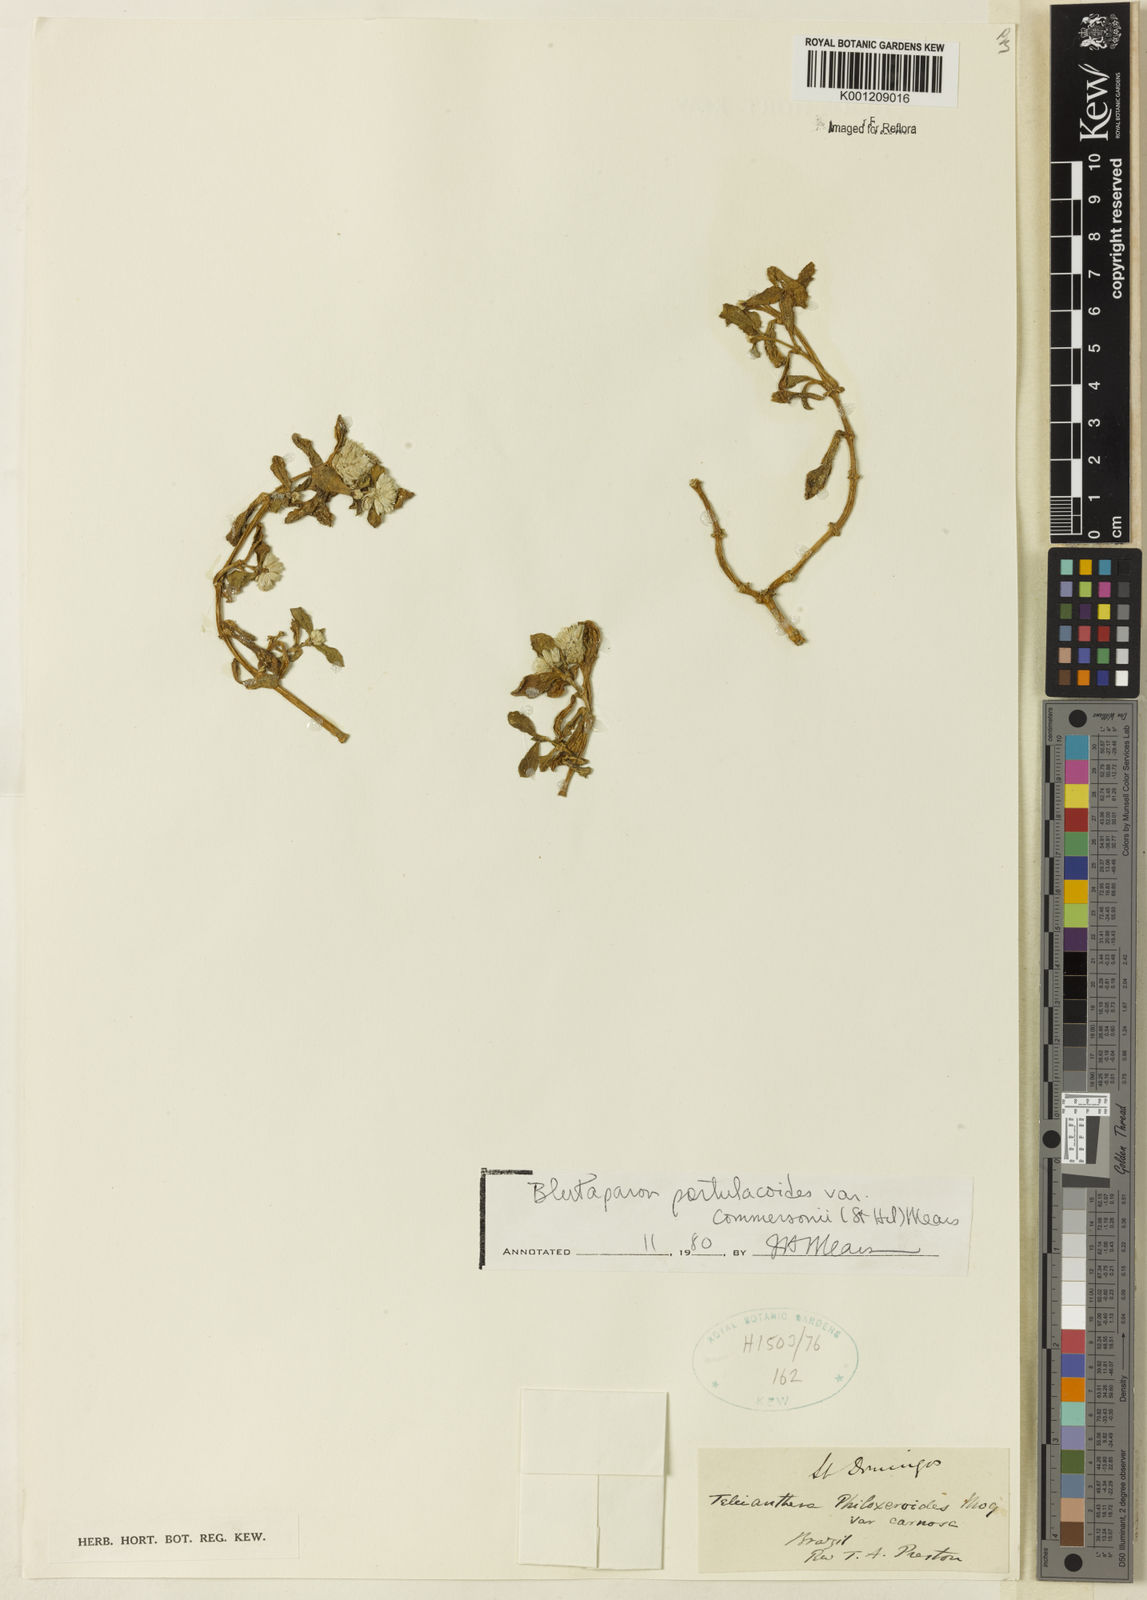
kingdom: Plantae
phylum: Tracheophyta
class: Magnoliopsida
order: Caryophyllales
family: Amaranthaceae
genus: Gomphrena
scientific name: Gomphrena portulacoides
